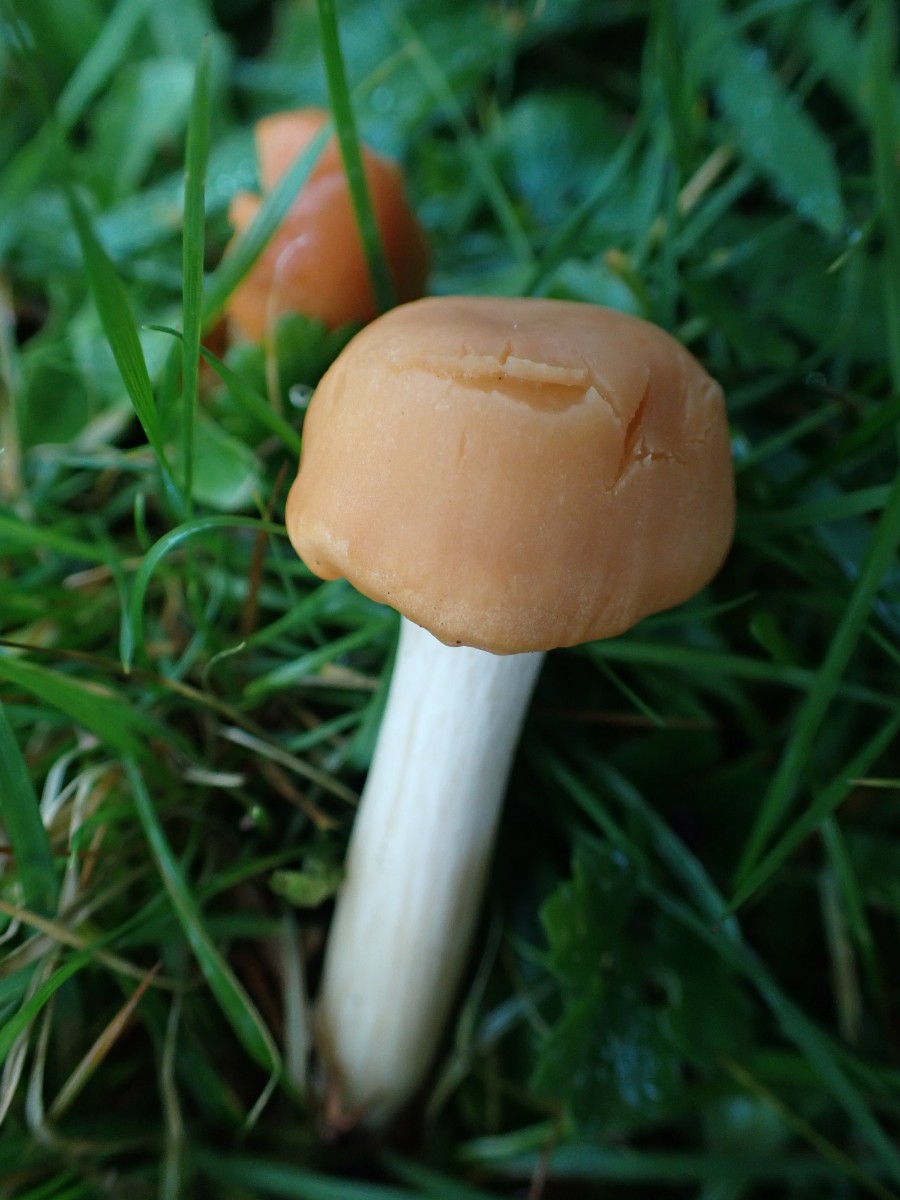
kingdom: Fungi
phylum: Basidiomycota
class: Agaricomycetes
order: Agaricales
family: Hygrophoraceae
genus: Cuphophyllus
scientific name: Cuphophyllus pratensis
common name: eng-vokshat
